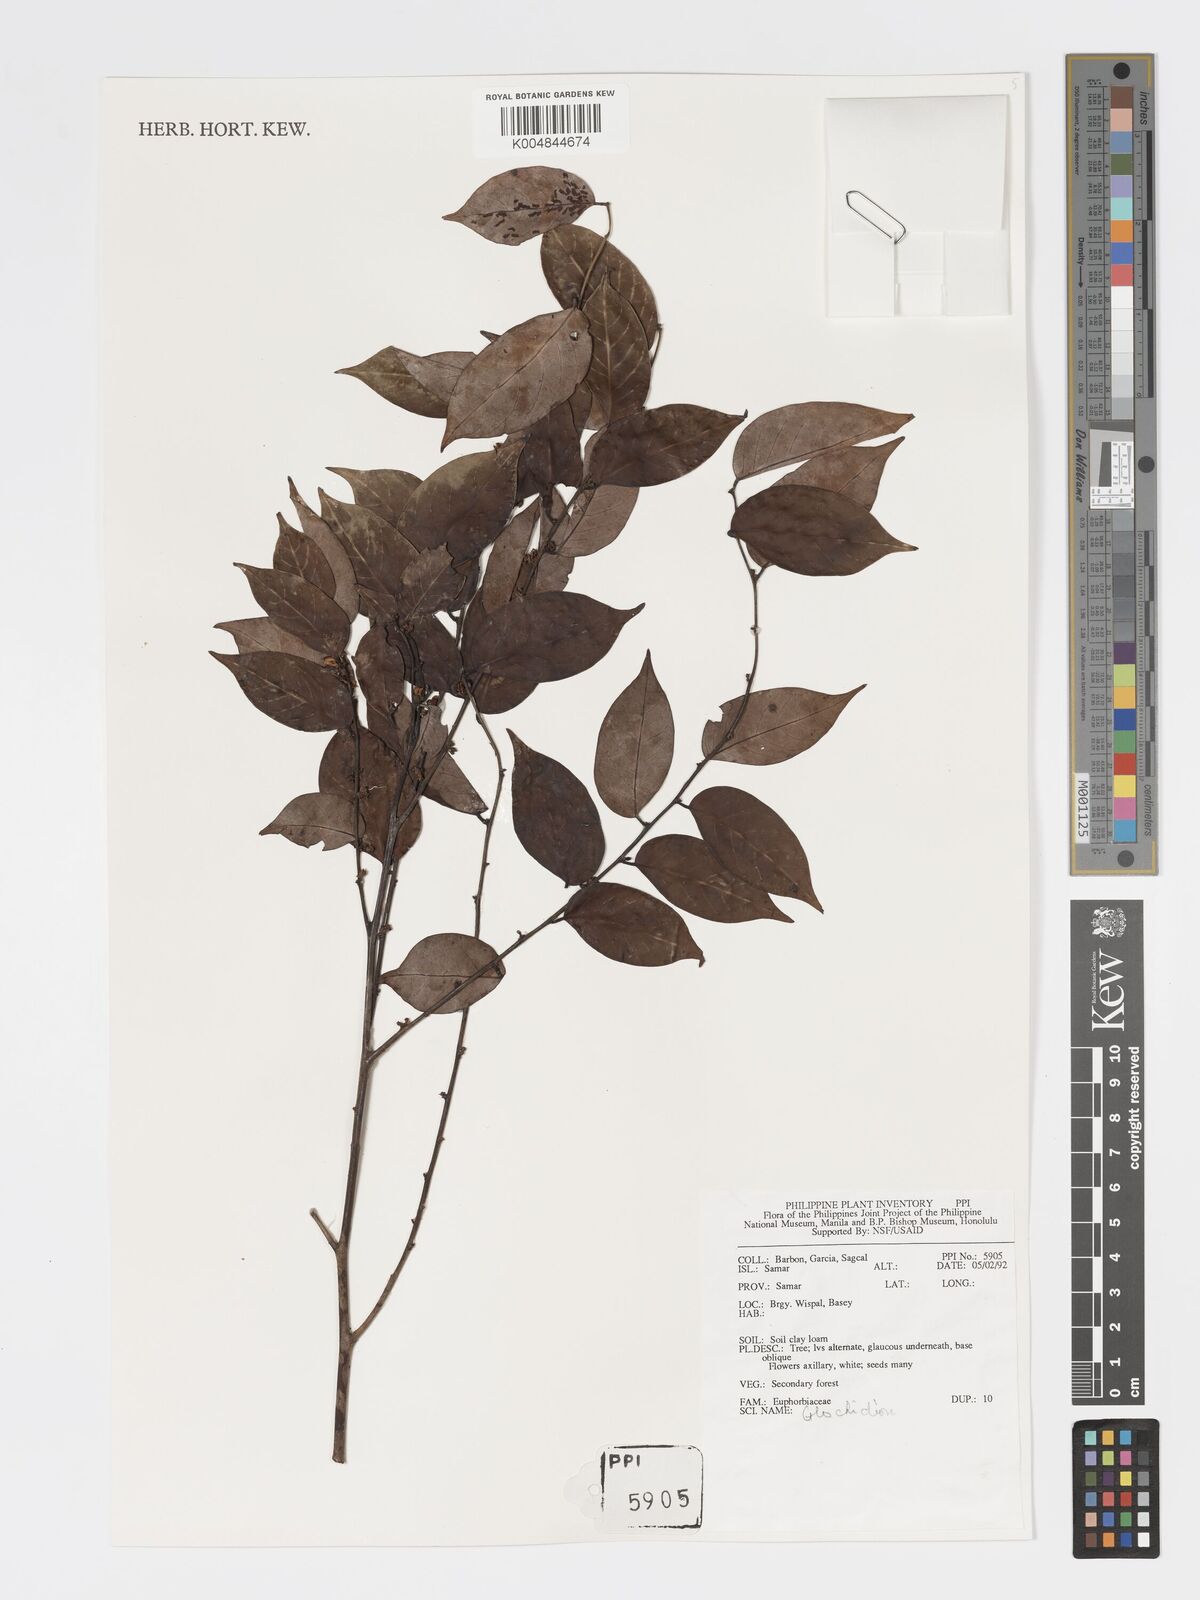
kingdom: Plantae
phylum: Tracheophyta
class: Magnoliopsida
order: Malpighiales
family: Phyllanthaceae
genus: Glochidion
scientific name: Glochidion
